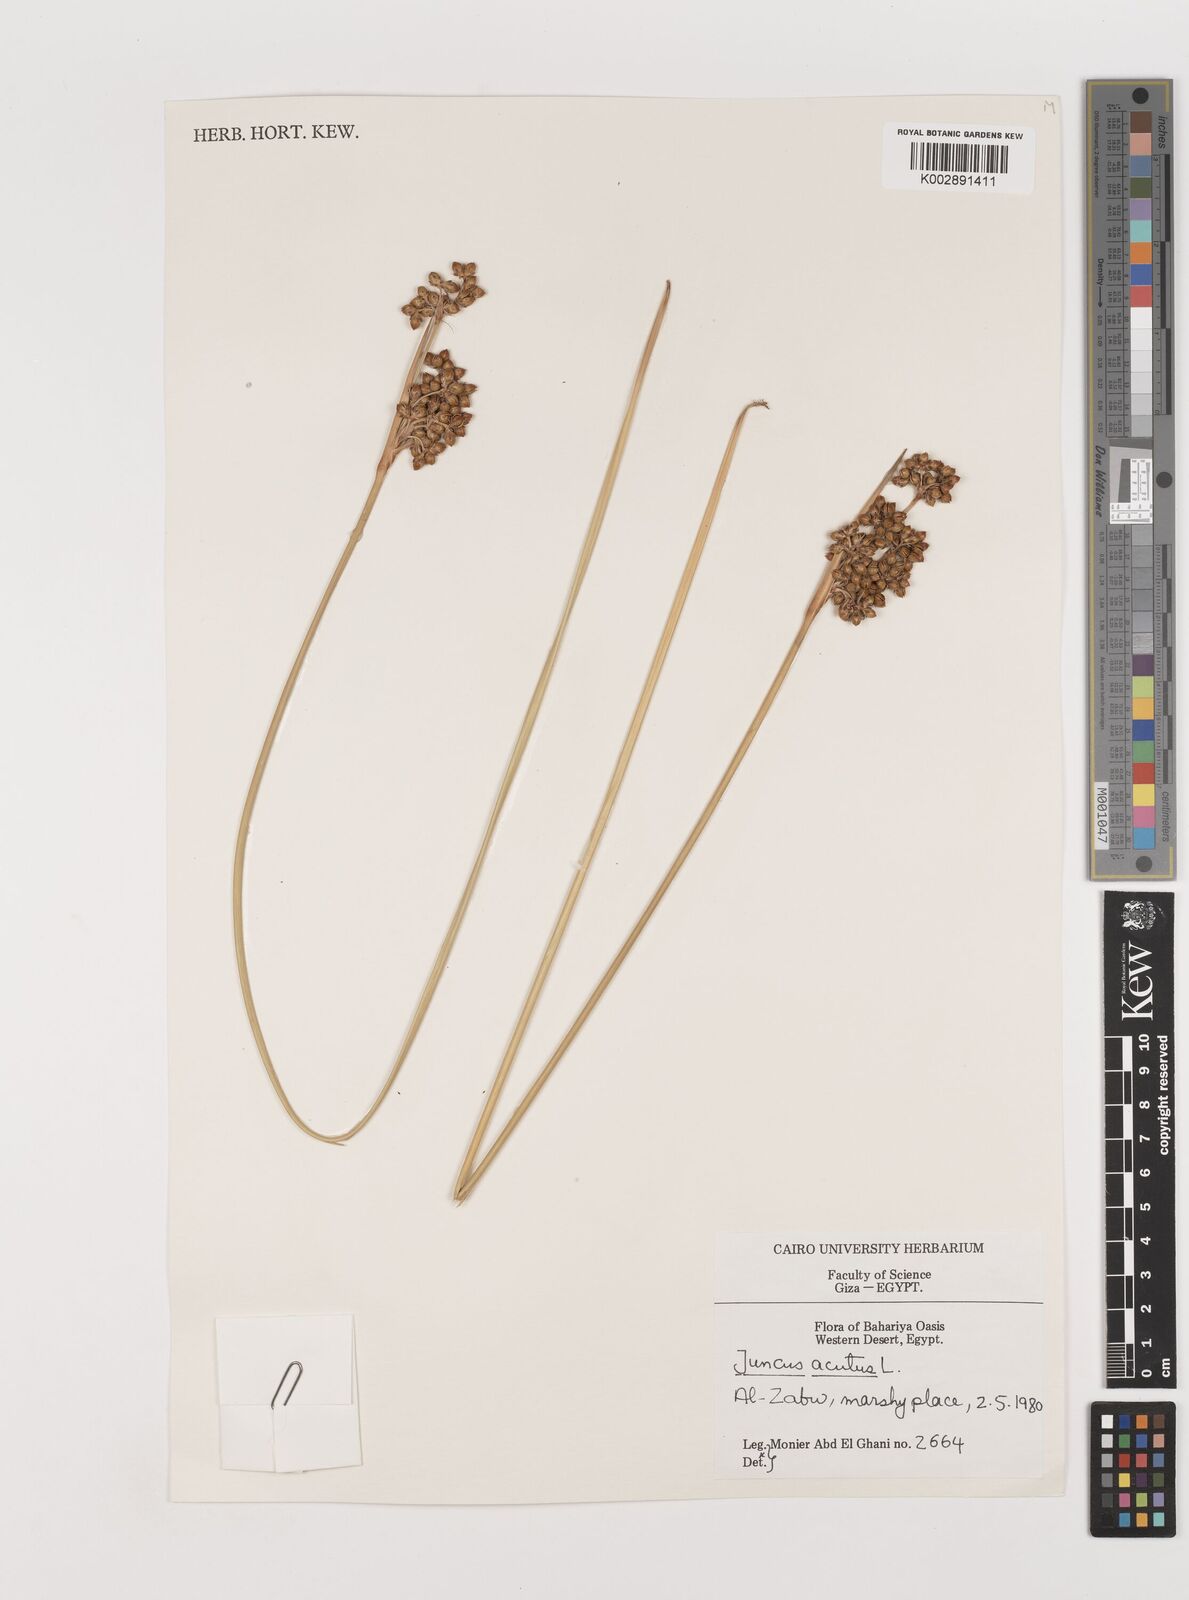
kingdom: Plantae
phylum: Tracheophyta
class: Liliopsida
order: Poales
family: Juncaceae
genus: Juncus
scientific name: Juncus acutus
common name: Sharp rush
